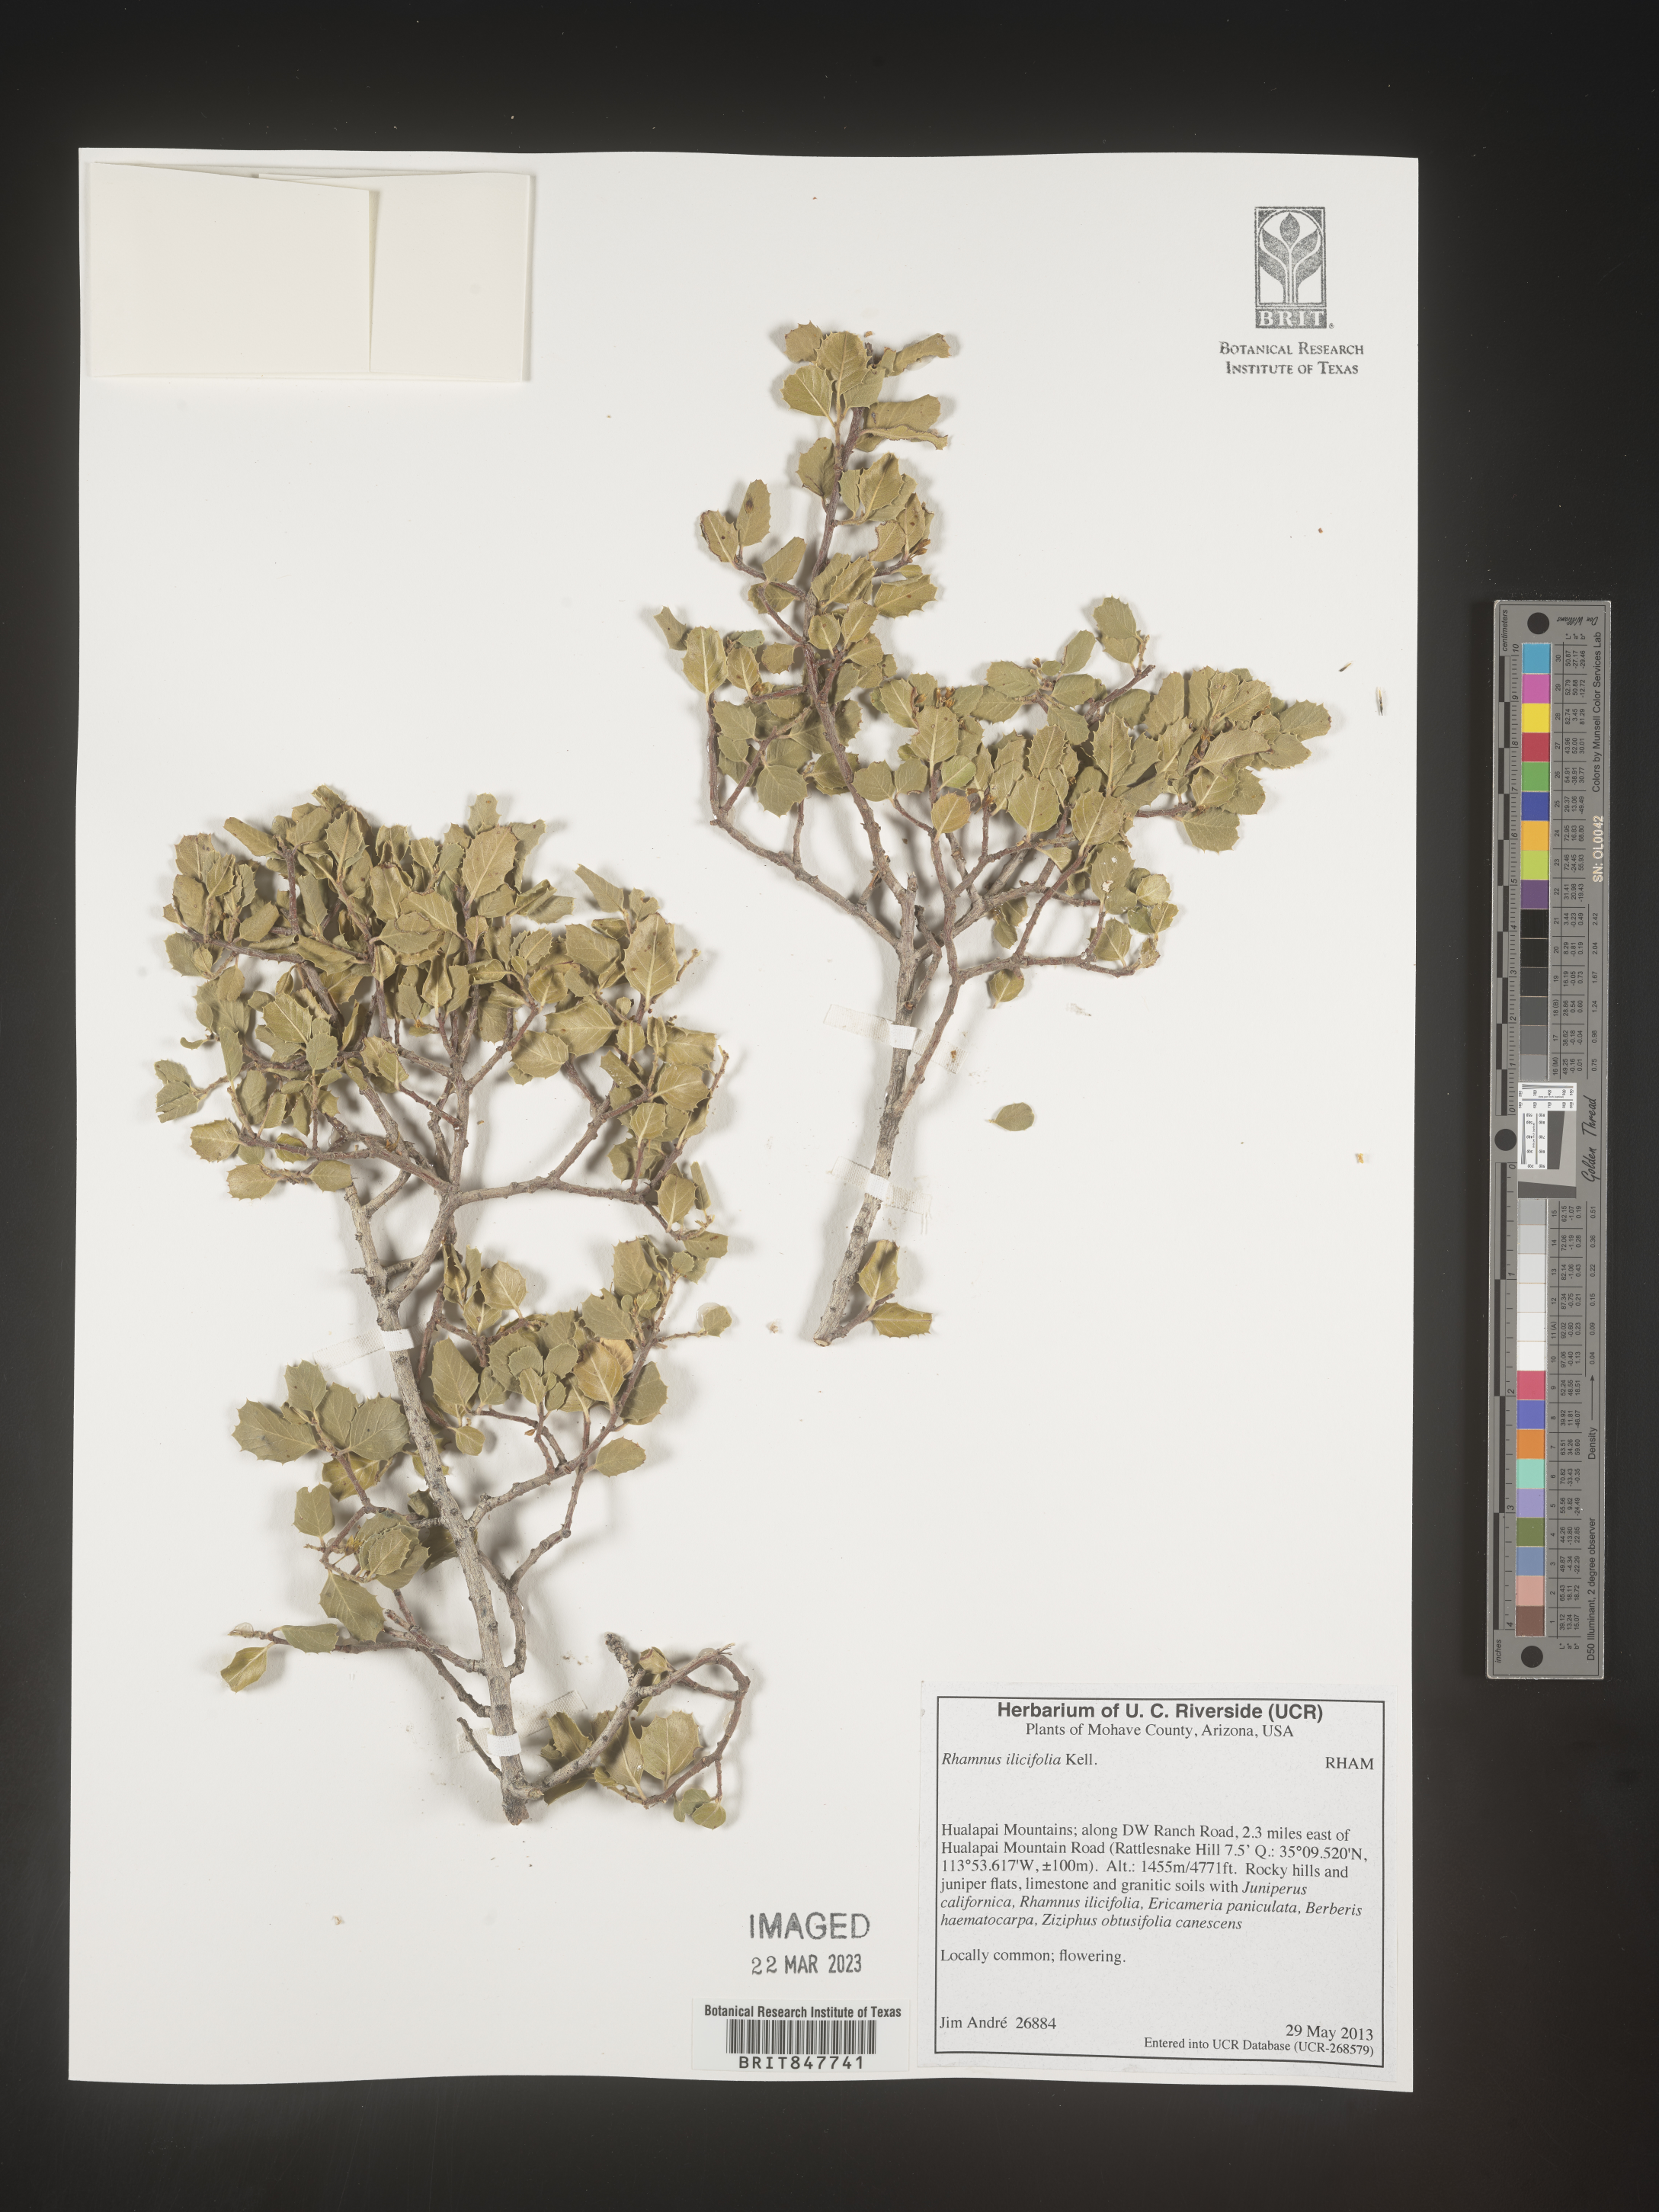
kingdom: Plantae
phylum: Tracheophyta
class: Magnoliopsida
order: Rosales
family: Rhamnaceae
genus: Endotropis
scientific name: Endotropis crocea
